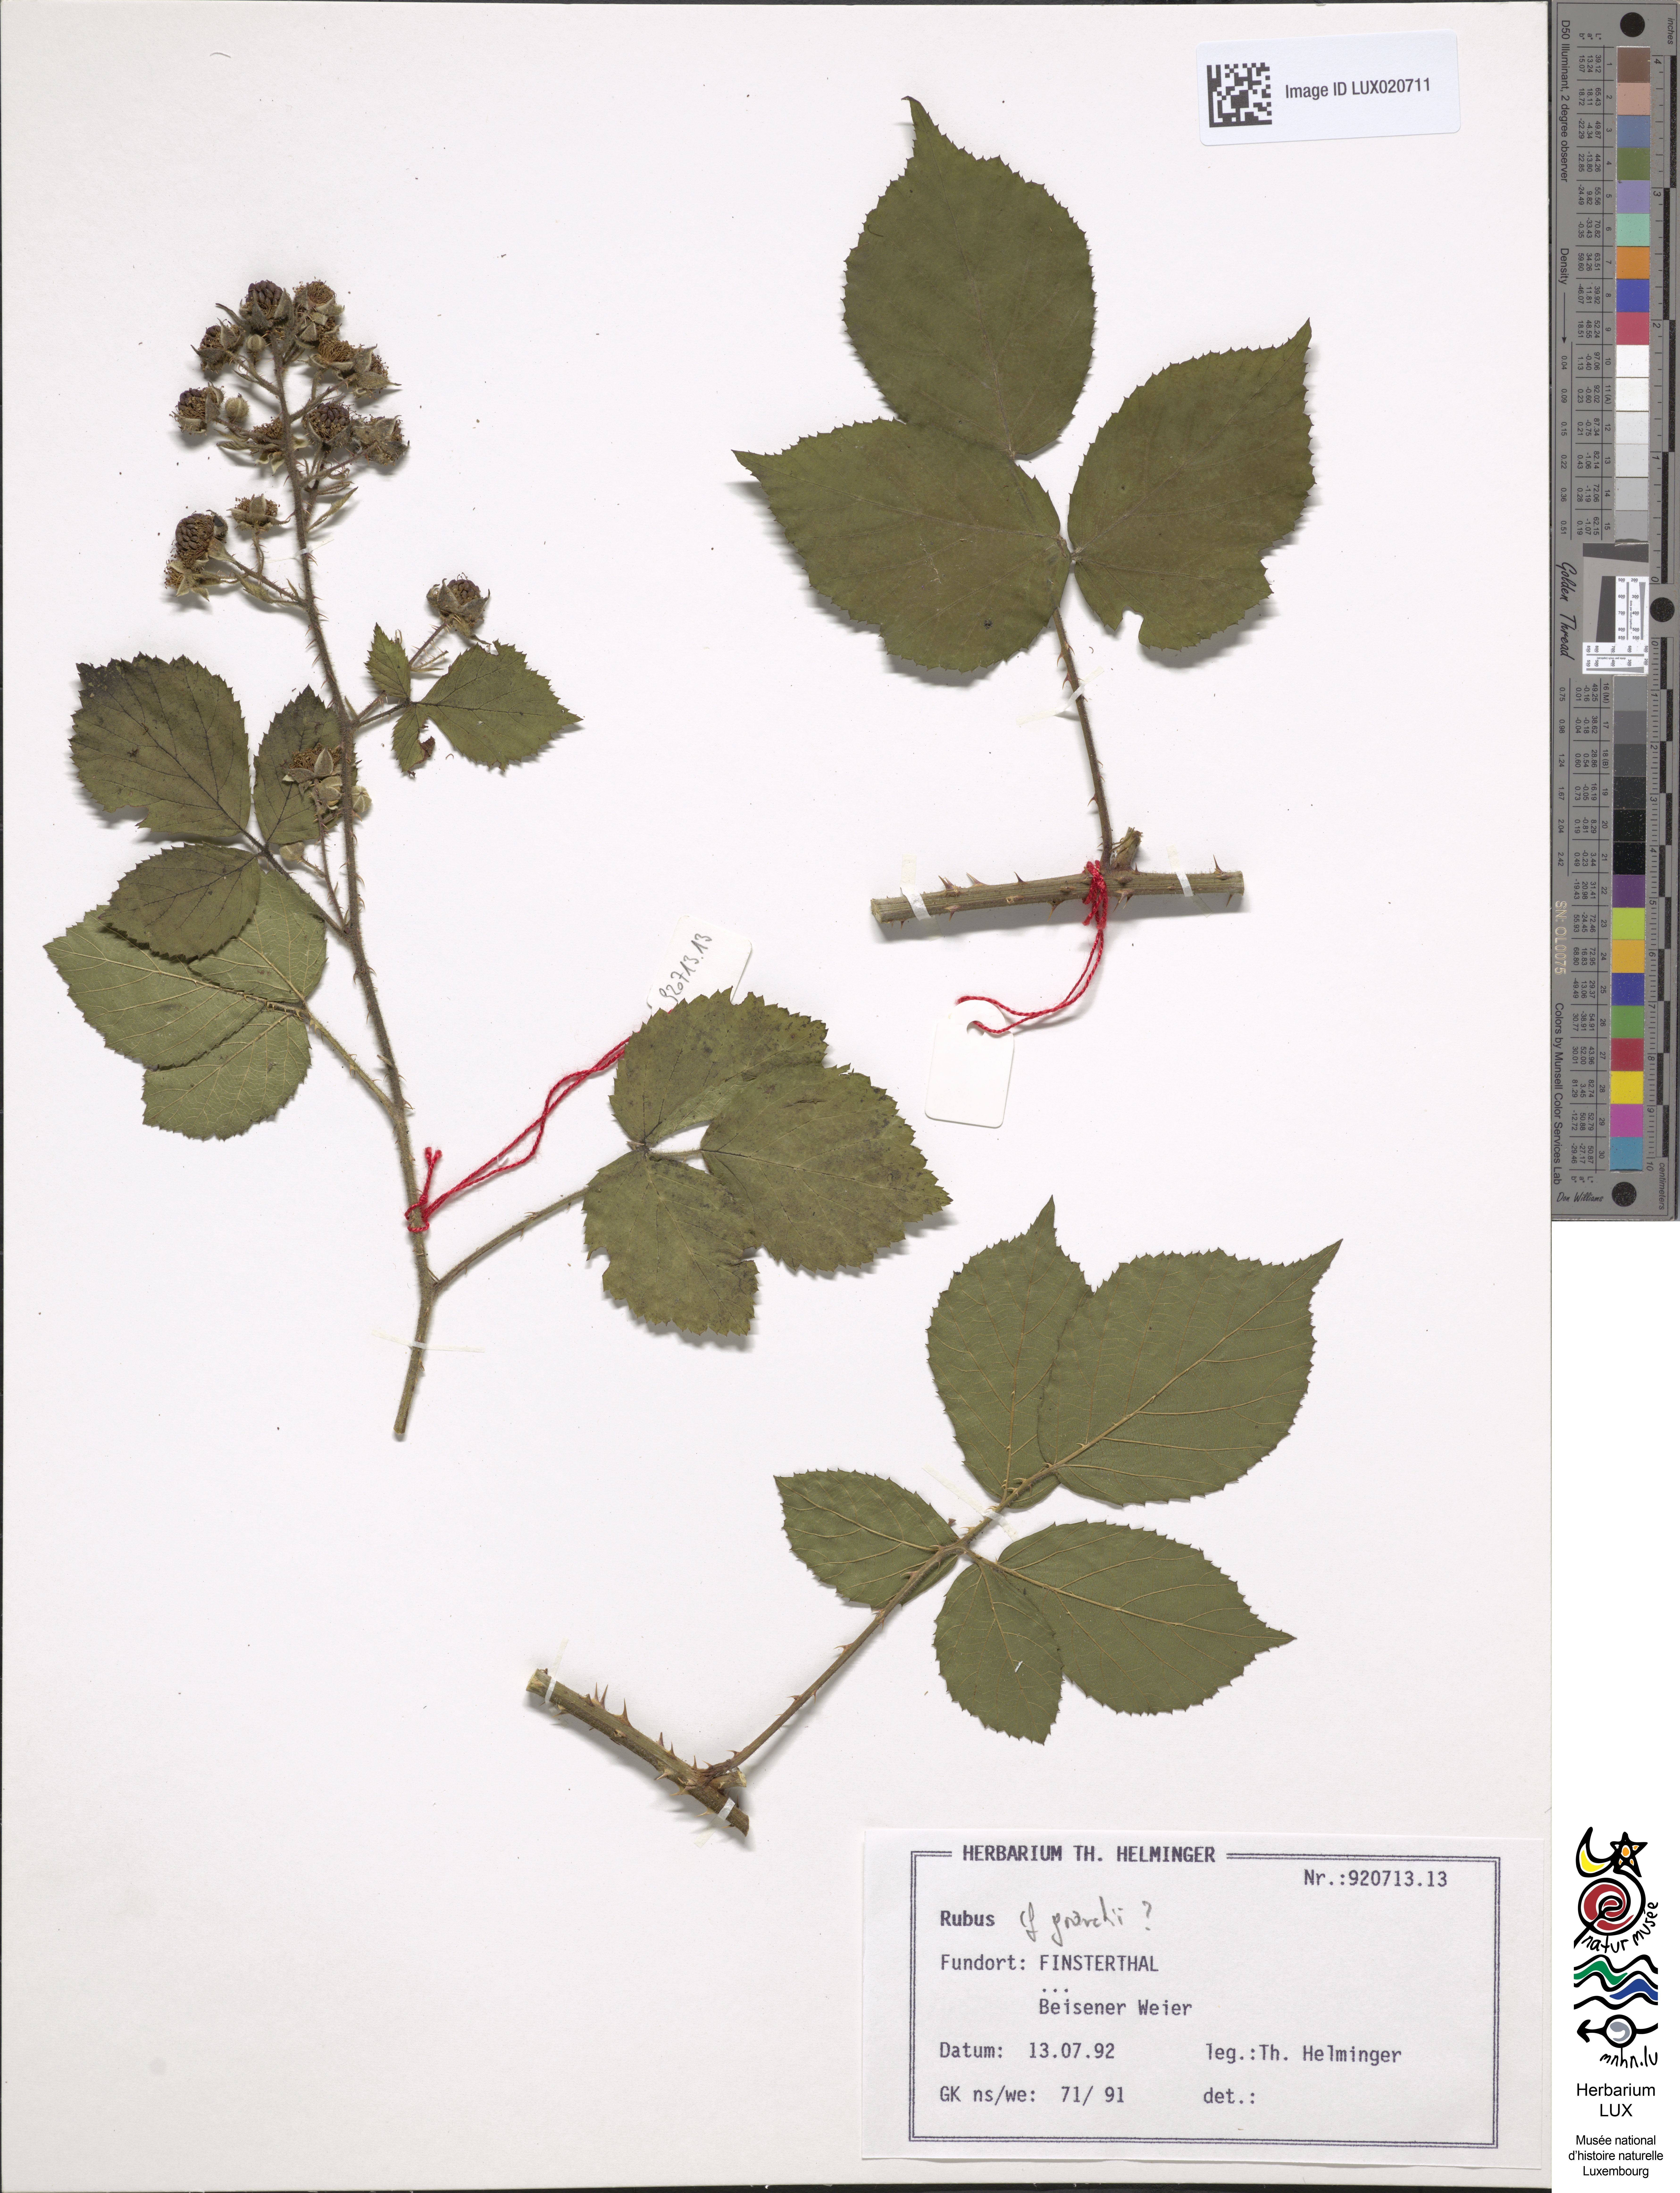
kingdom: Plantae
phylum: Tracheophyta
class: Magnoliopsida
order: Rosales
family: Rosaceae
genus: Rubus
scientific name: Rubus
